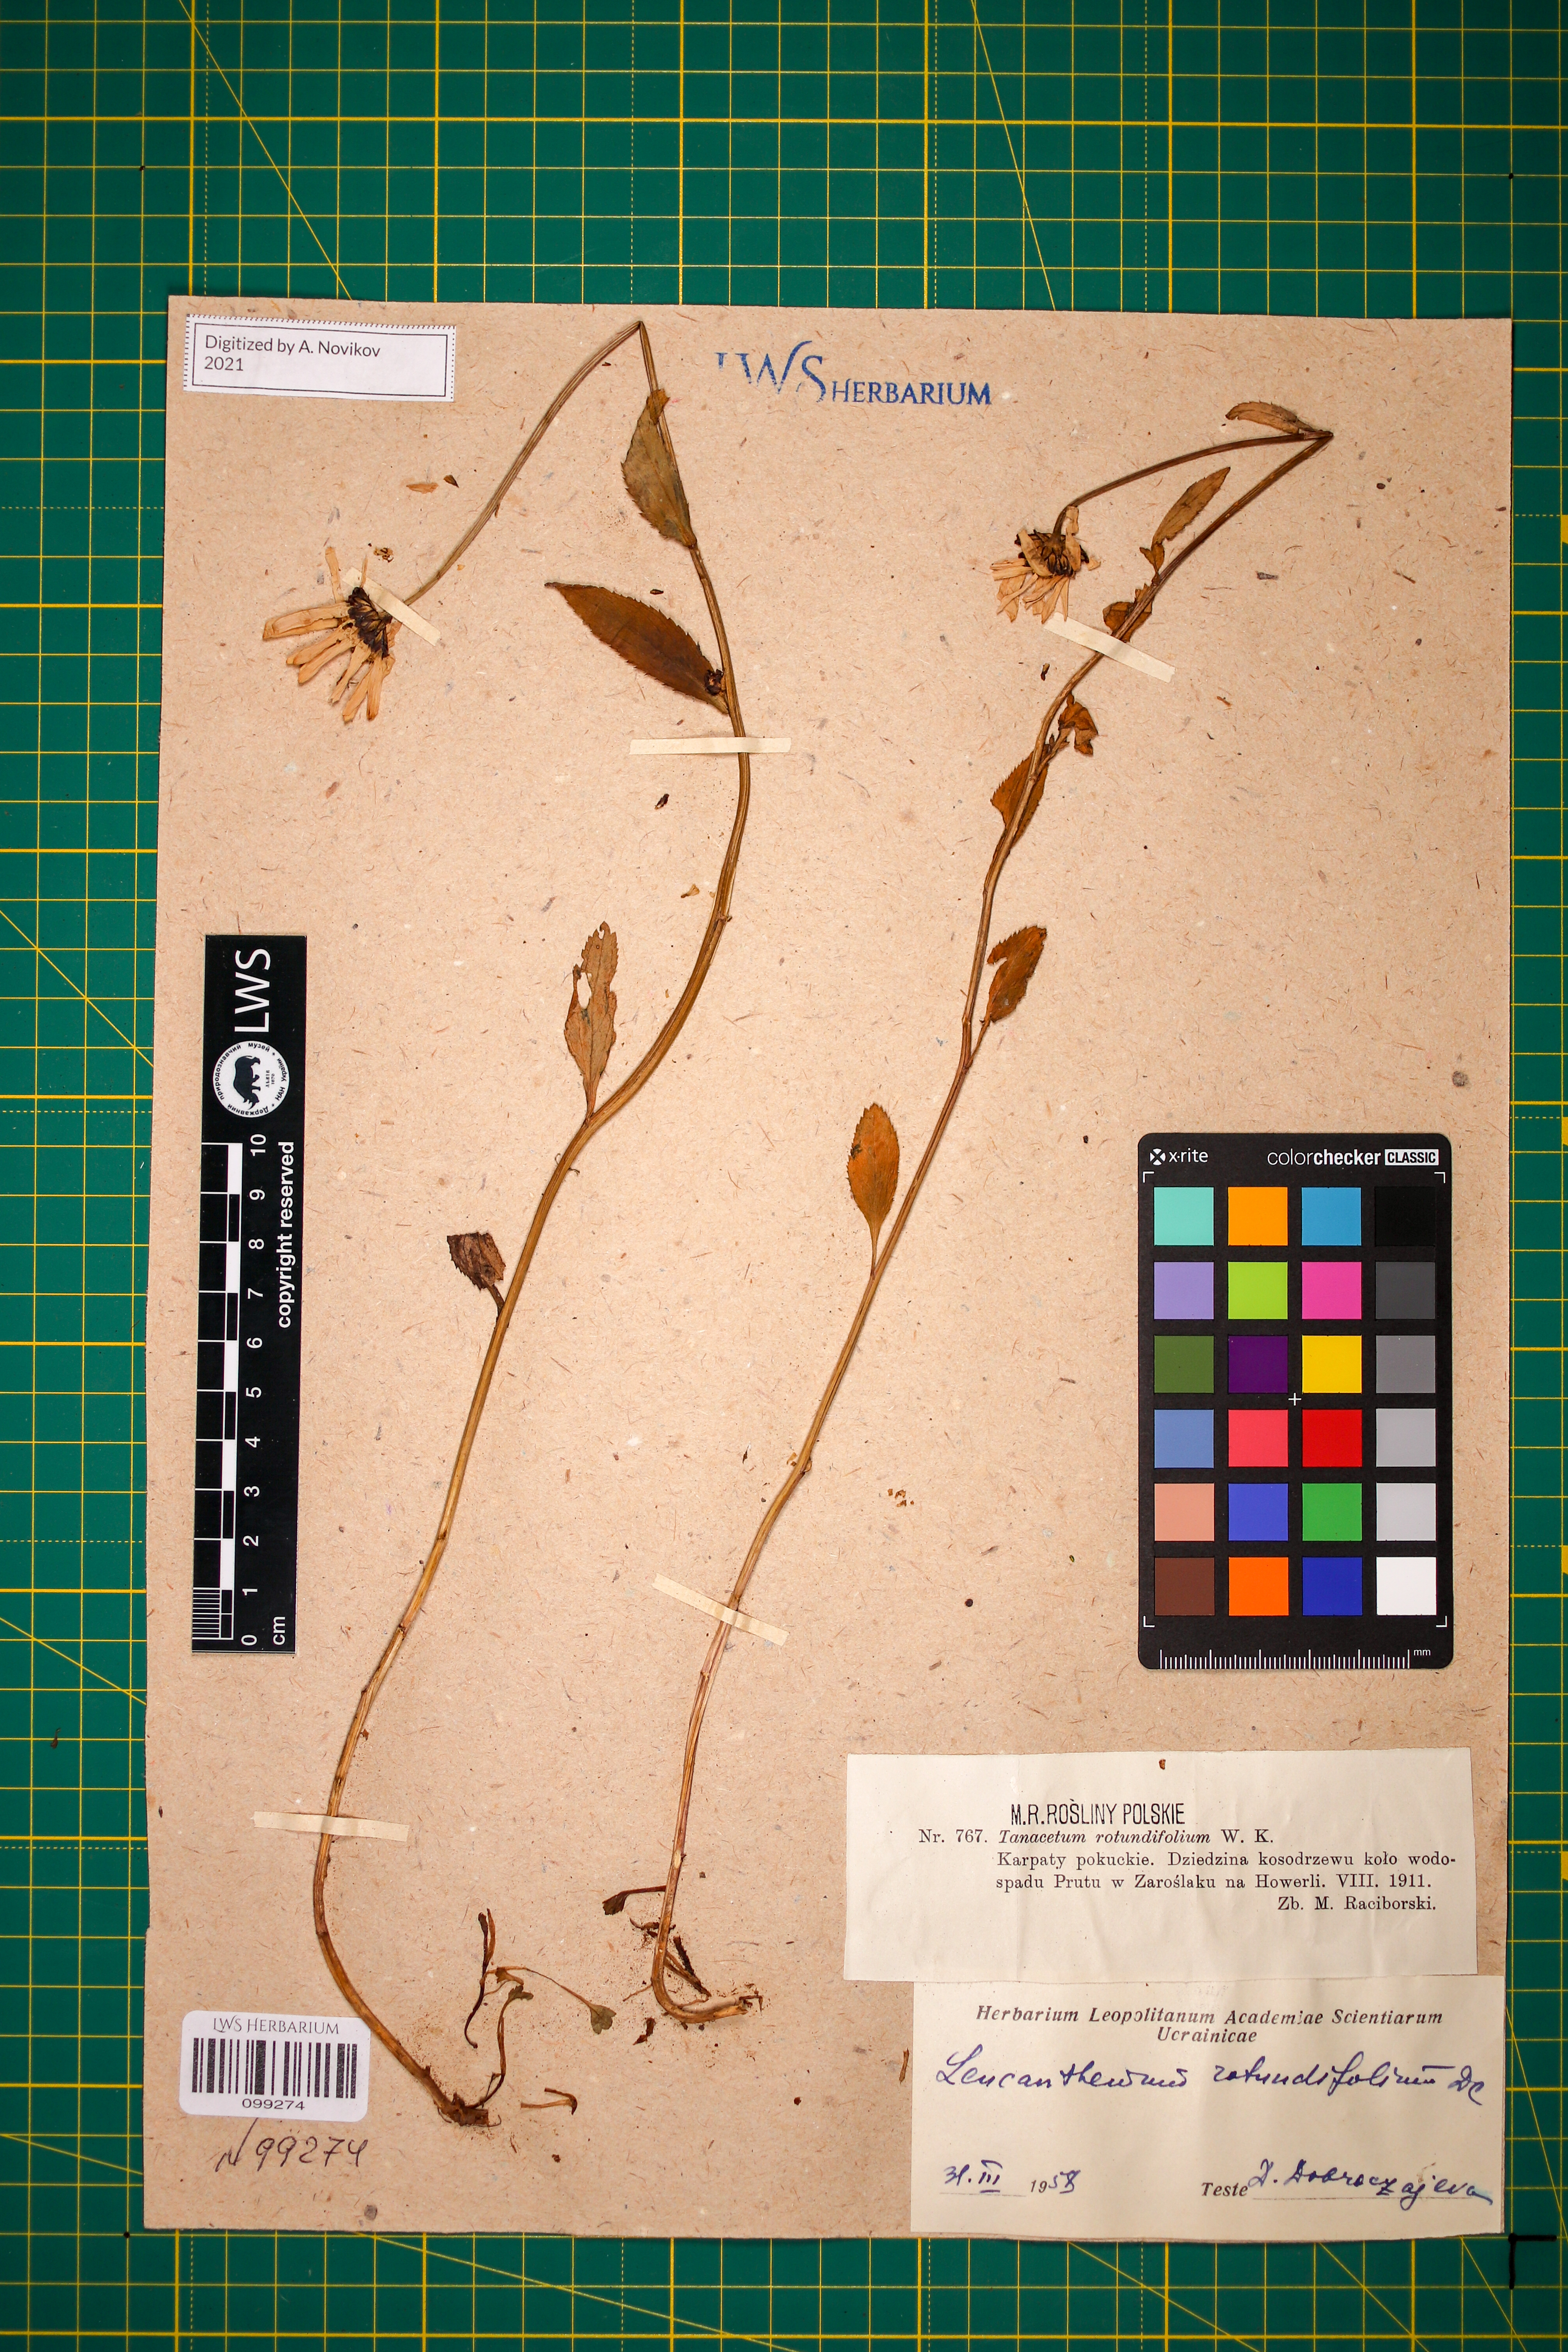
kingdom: Plantae
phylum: Tracheophyta
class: Magnoliopsida
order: Asterales
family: Asteraceae
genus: Leucanthemum
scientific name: Leucanthemum rotundifolium
